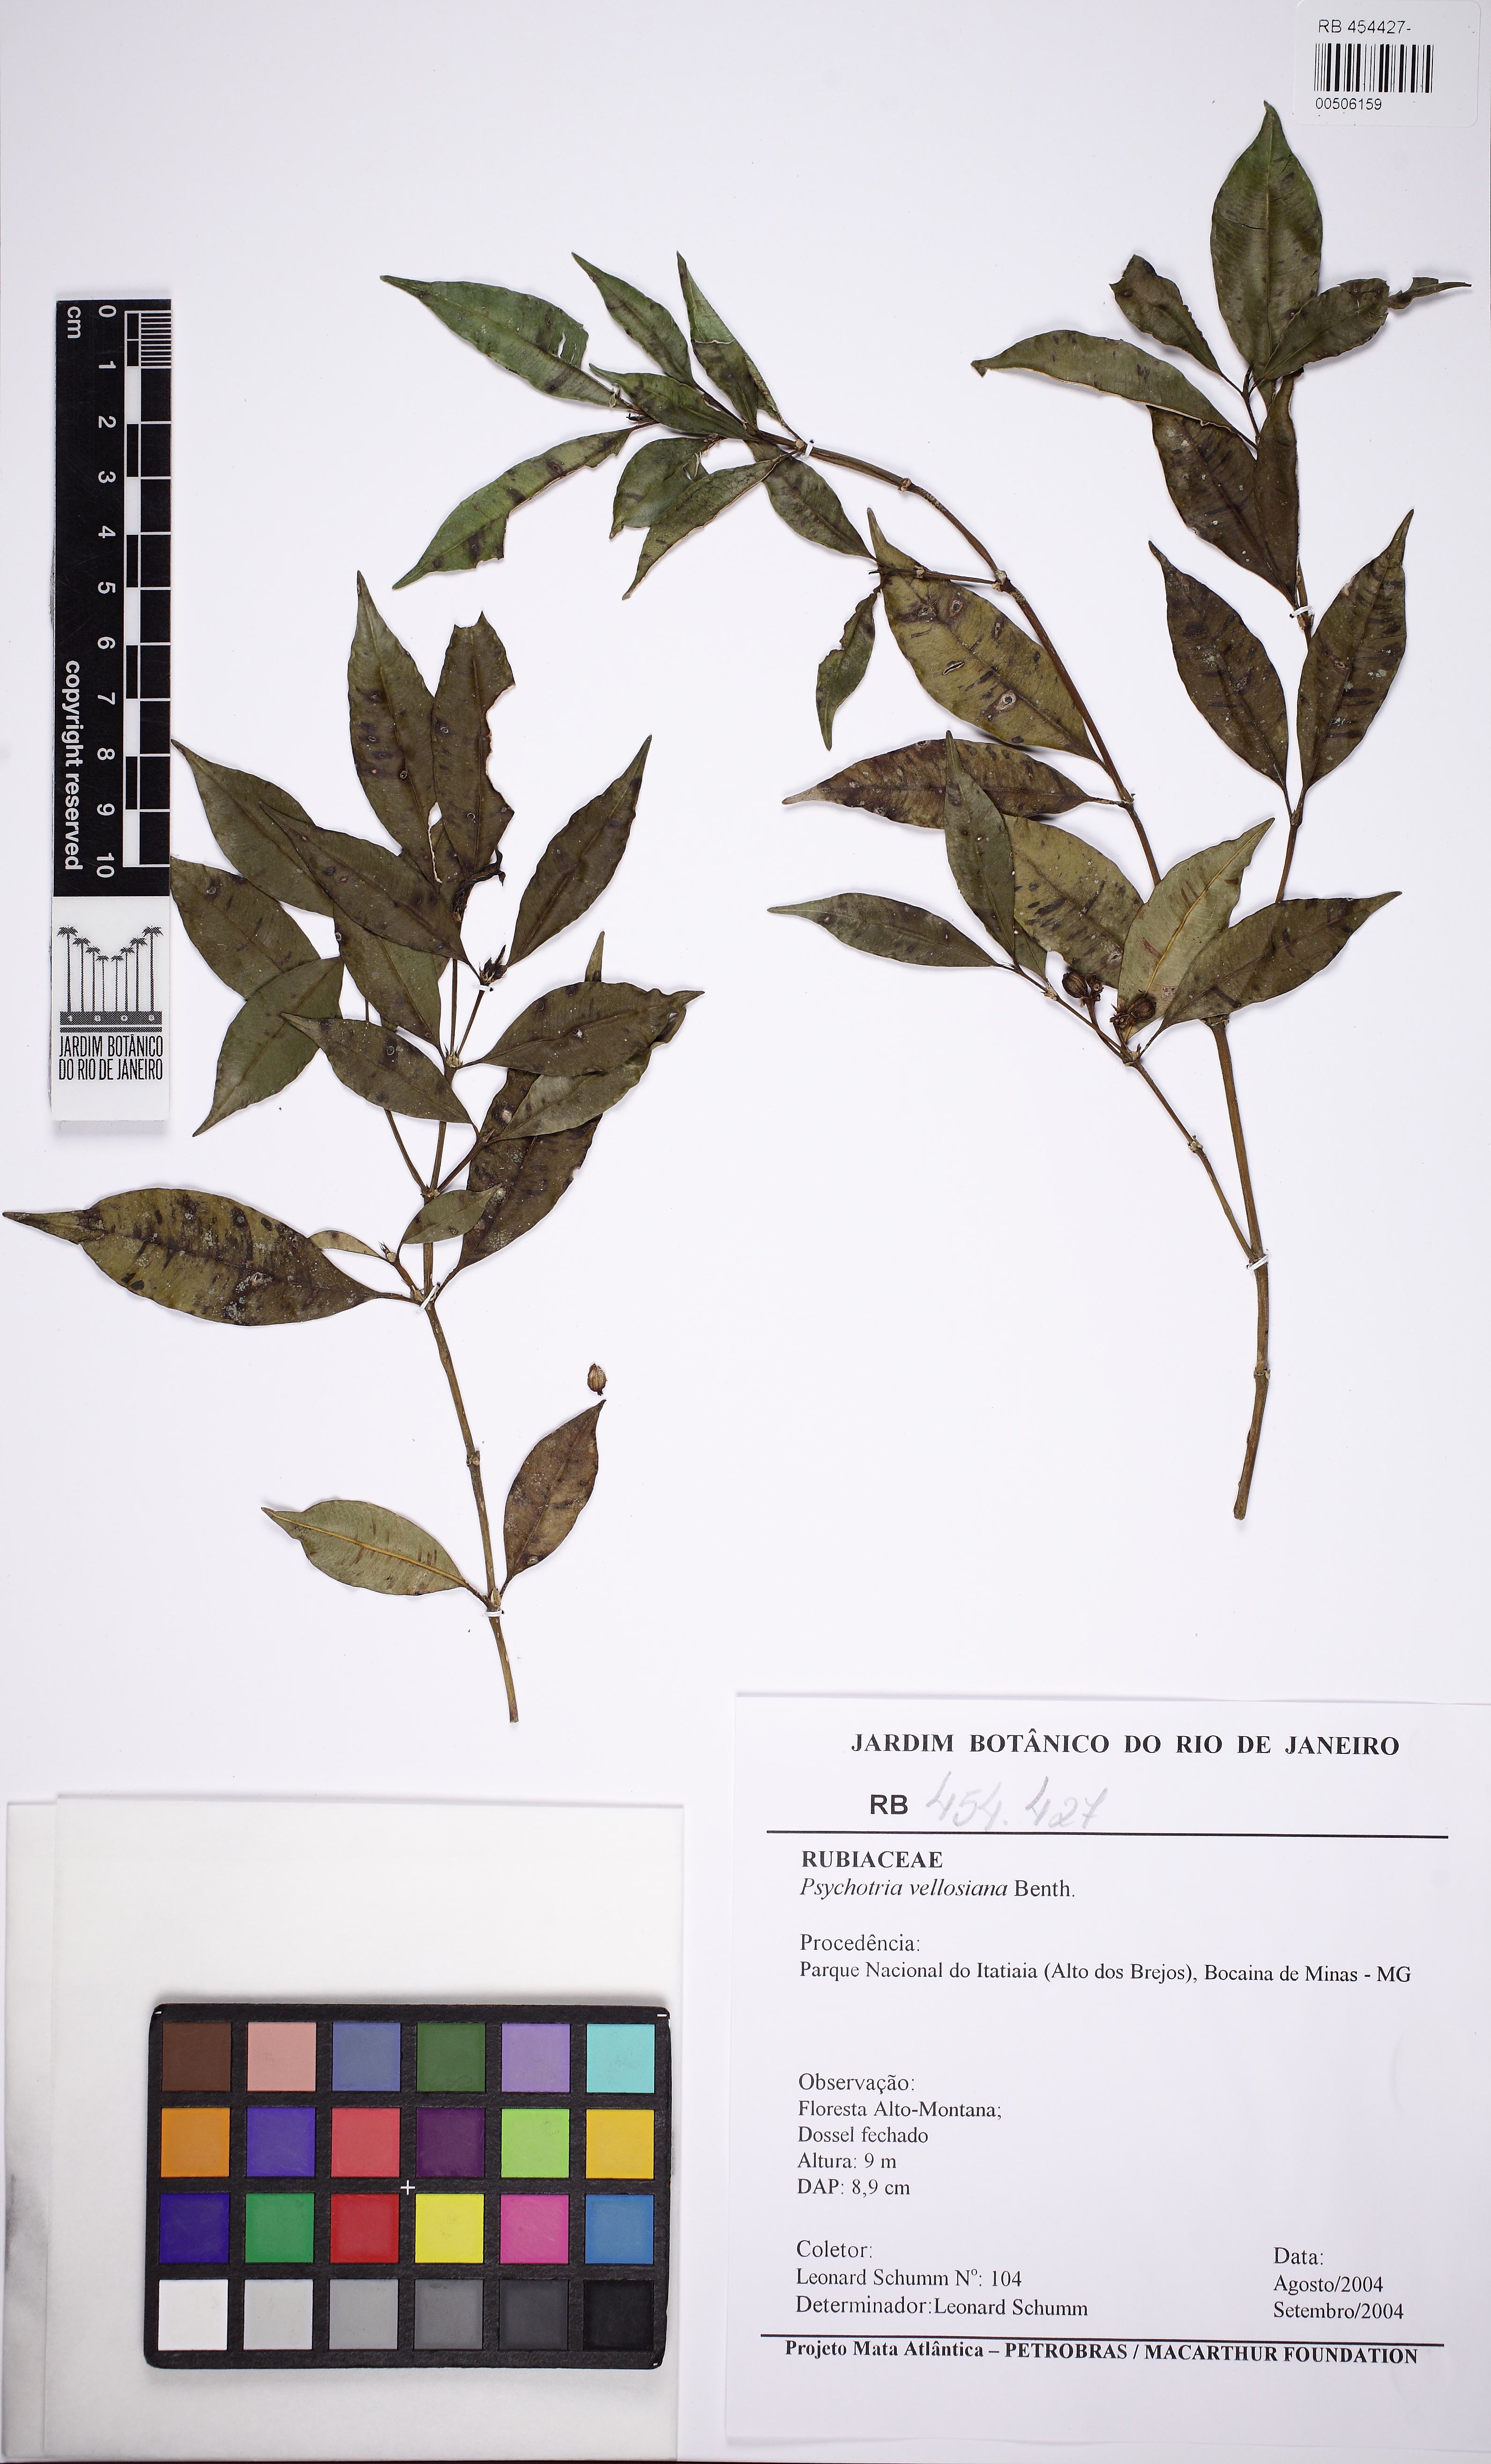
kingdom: Plantae
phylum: Tracheophyta
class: Magnoliopsida
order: Gentianales
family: Rubiaceae
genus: Palicourea
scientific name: Palicourea sessilis
